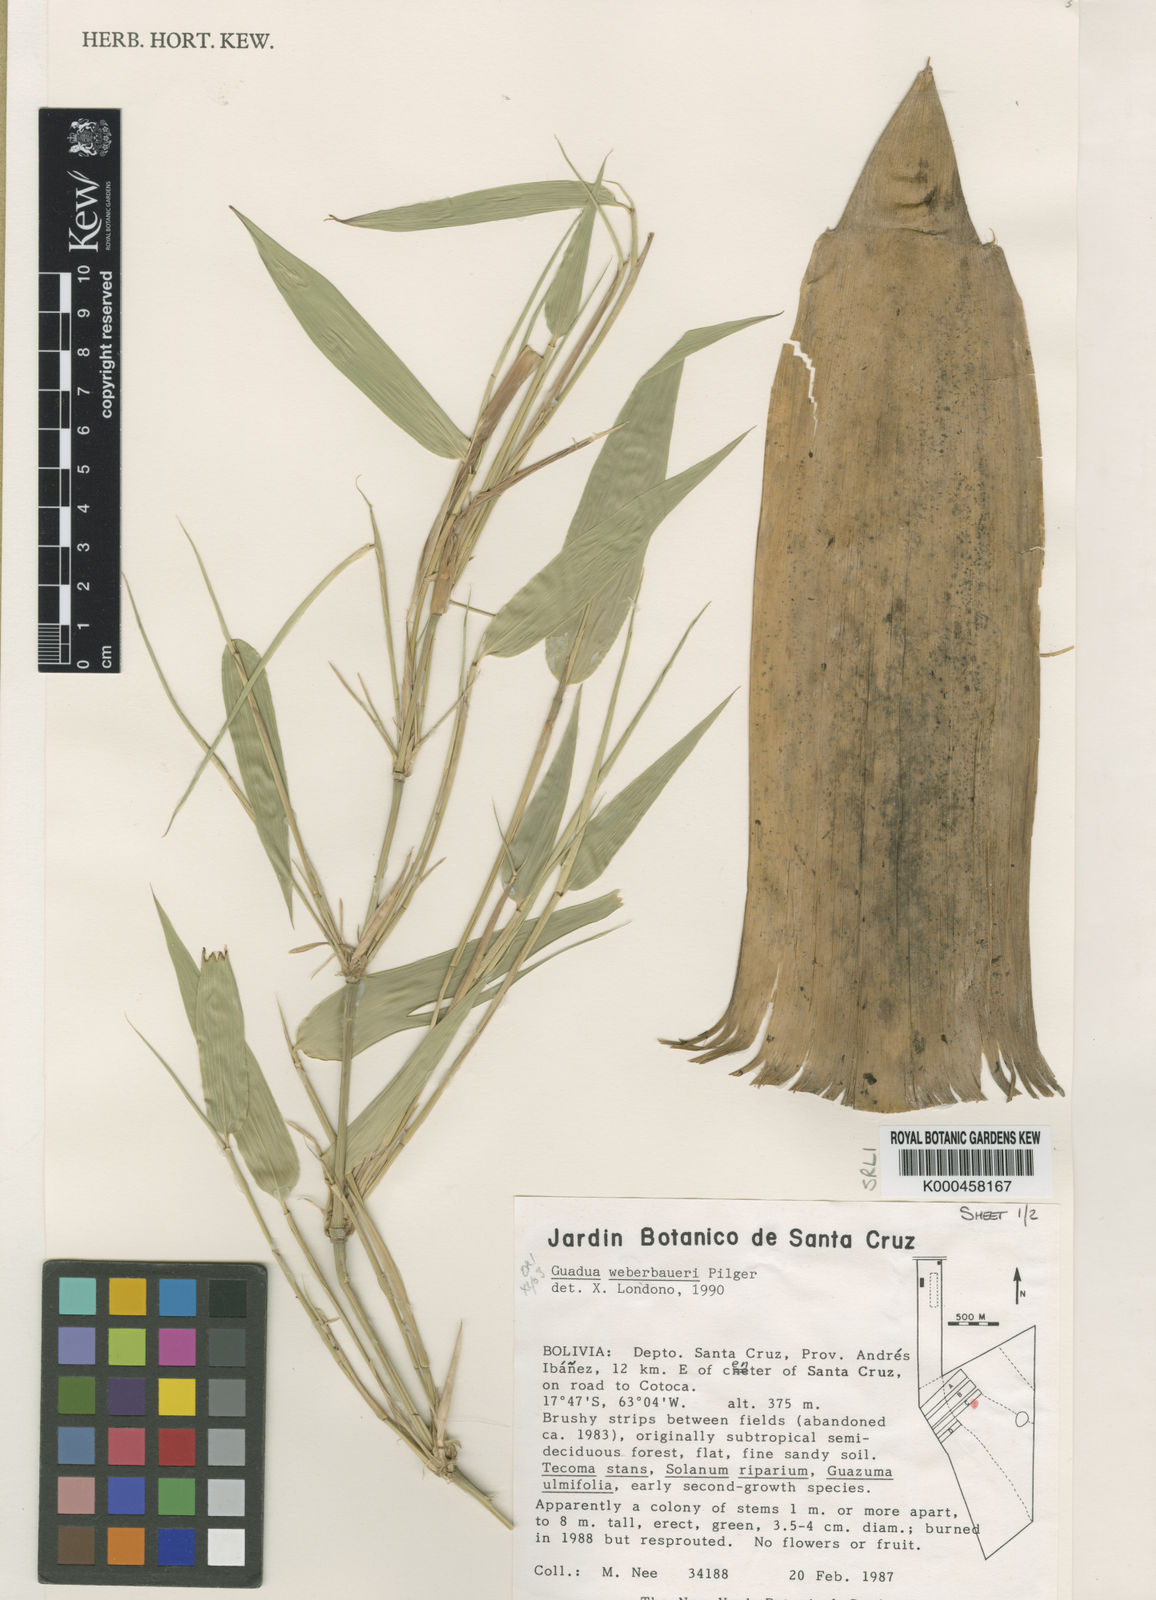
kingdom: Plantae
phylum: Tracheophyta
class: Liliopsida
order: Poales
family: Poaceae
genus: Guadua
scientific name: Guadua weberbaueri
